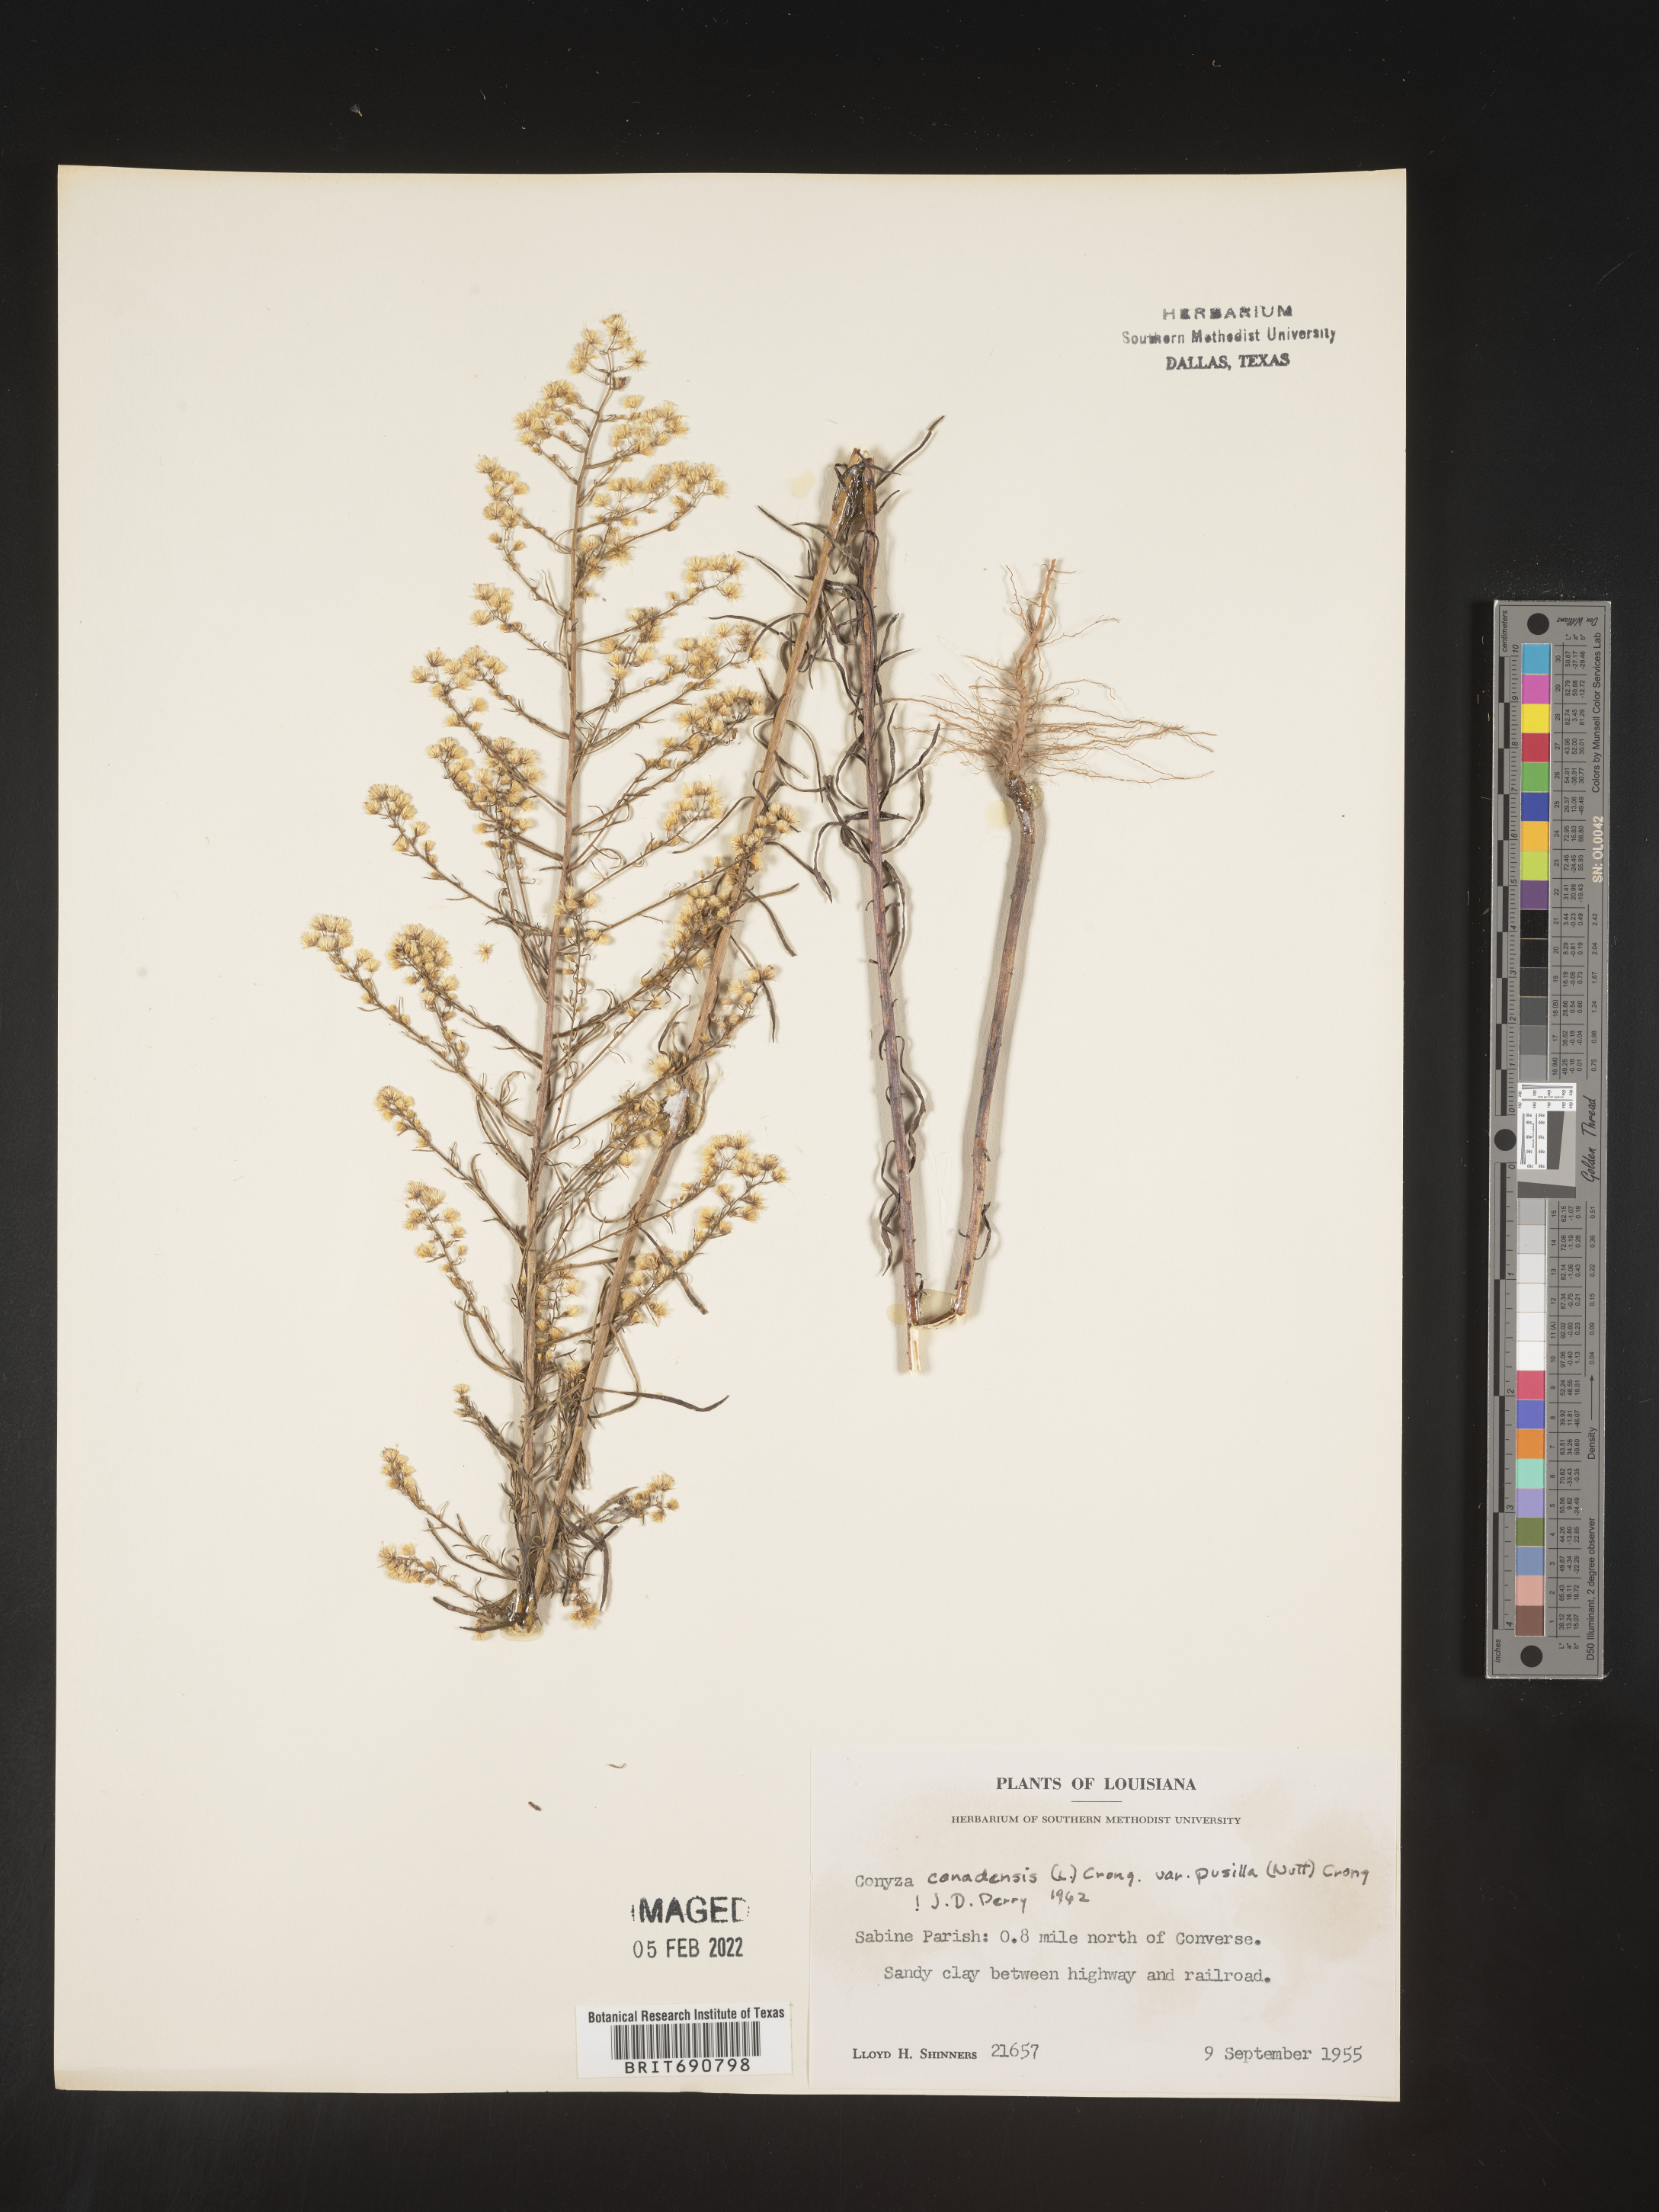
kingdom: Plantae
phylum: Tracheophyta
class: Magnoliopsida
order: Asterales
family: Asteraceae
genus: Erigeron
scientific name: Erigeron canadensis
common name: Canadian fleabane
